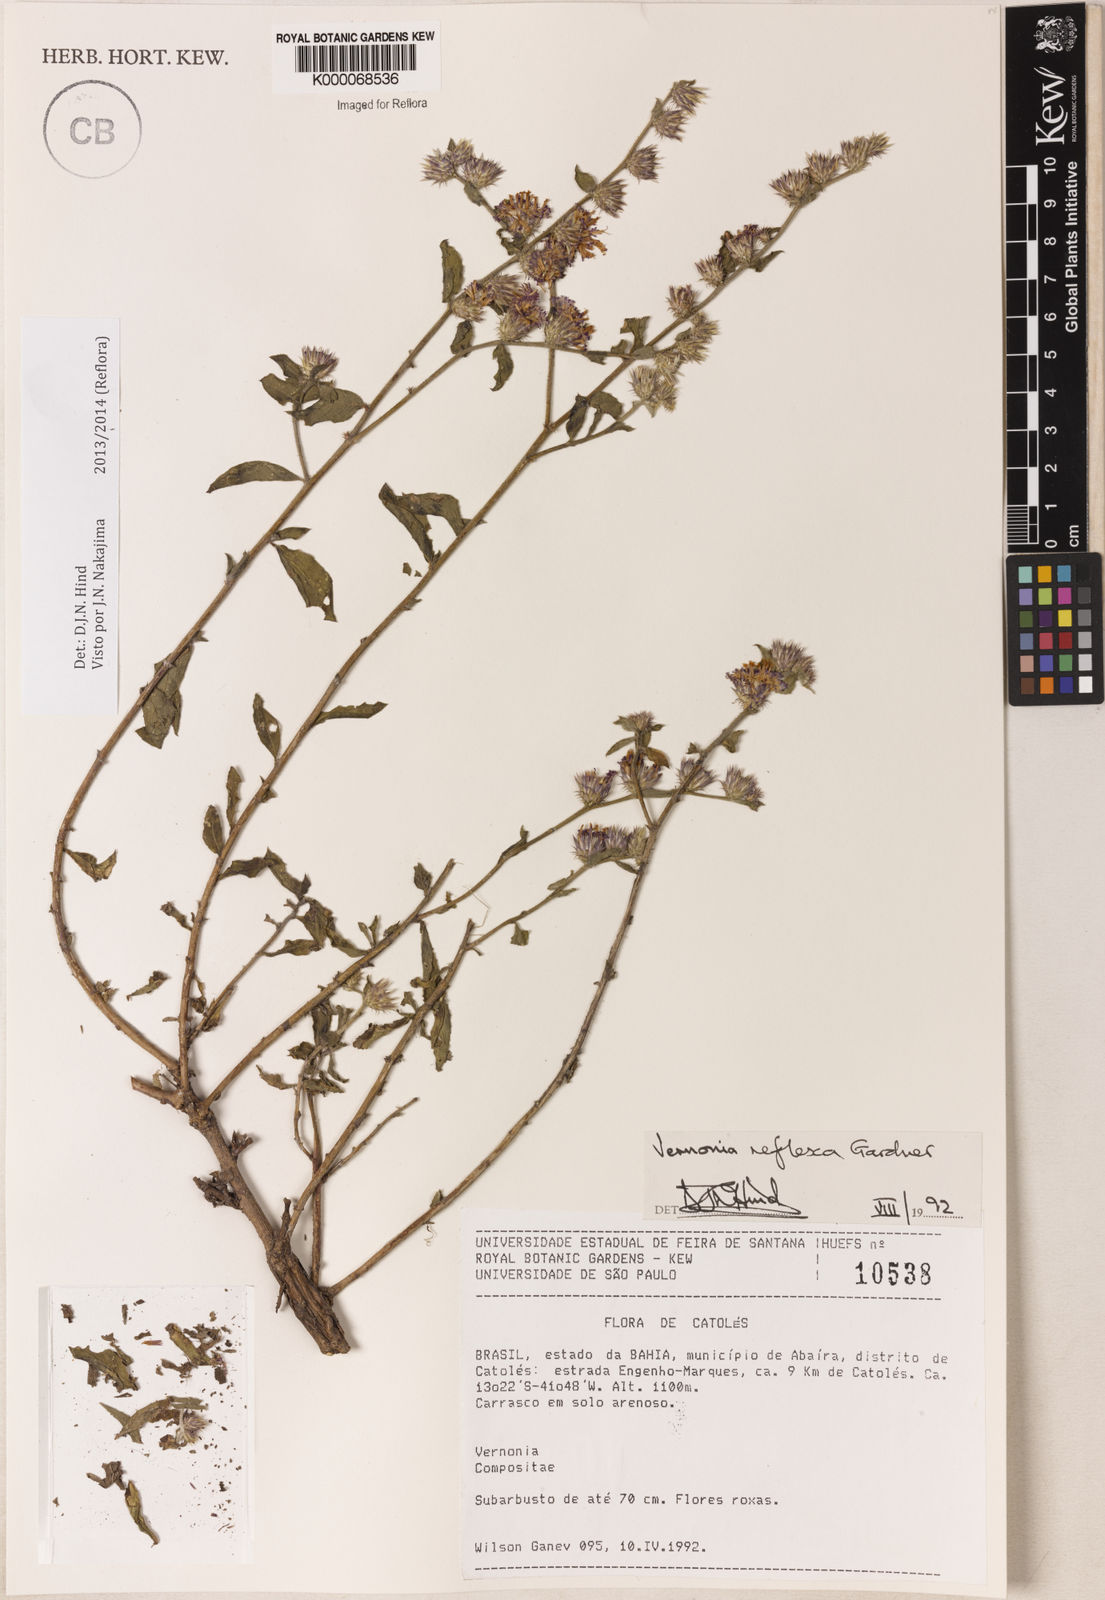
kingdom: Plantae
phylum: Tracheophyta
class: Magnoliopsida
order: Asterales
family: Asteraceae
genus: Lepidaploa
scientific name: Lepidaploa reflexa
